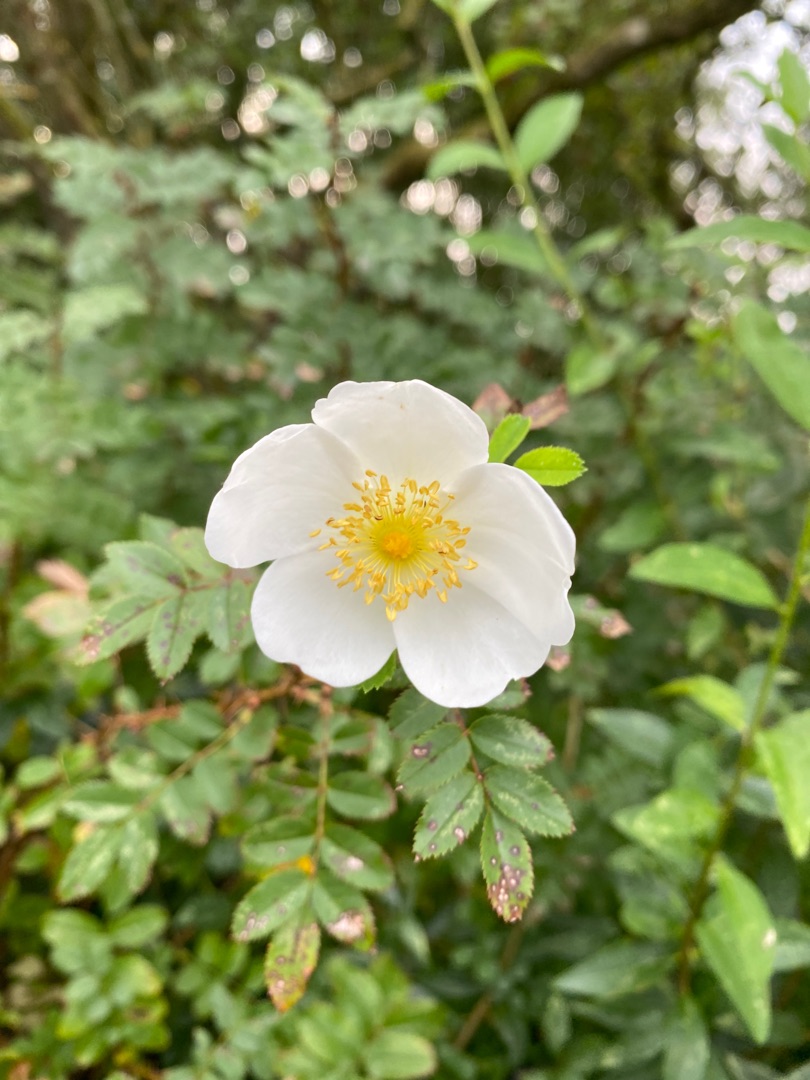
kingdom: Plantae
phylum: Tracheophyta
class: Magnoliopsida
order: Rosales
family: Rosaceae
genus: Rosa
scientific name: Rosa spinosissima
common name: Klit-rose
